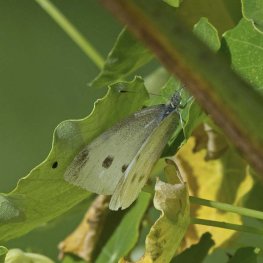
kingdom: Animalia
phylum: Arthropoda
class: Insecta
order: Lepidoptera
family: Pieridae
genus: Pieris
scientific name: Pieris rapae
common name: Cabbage White
